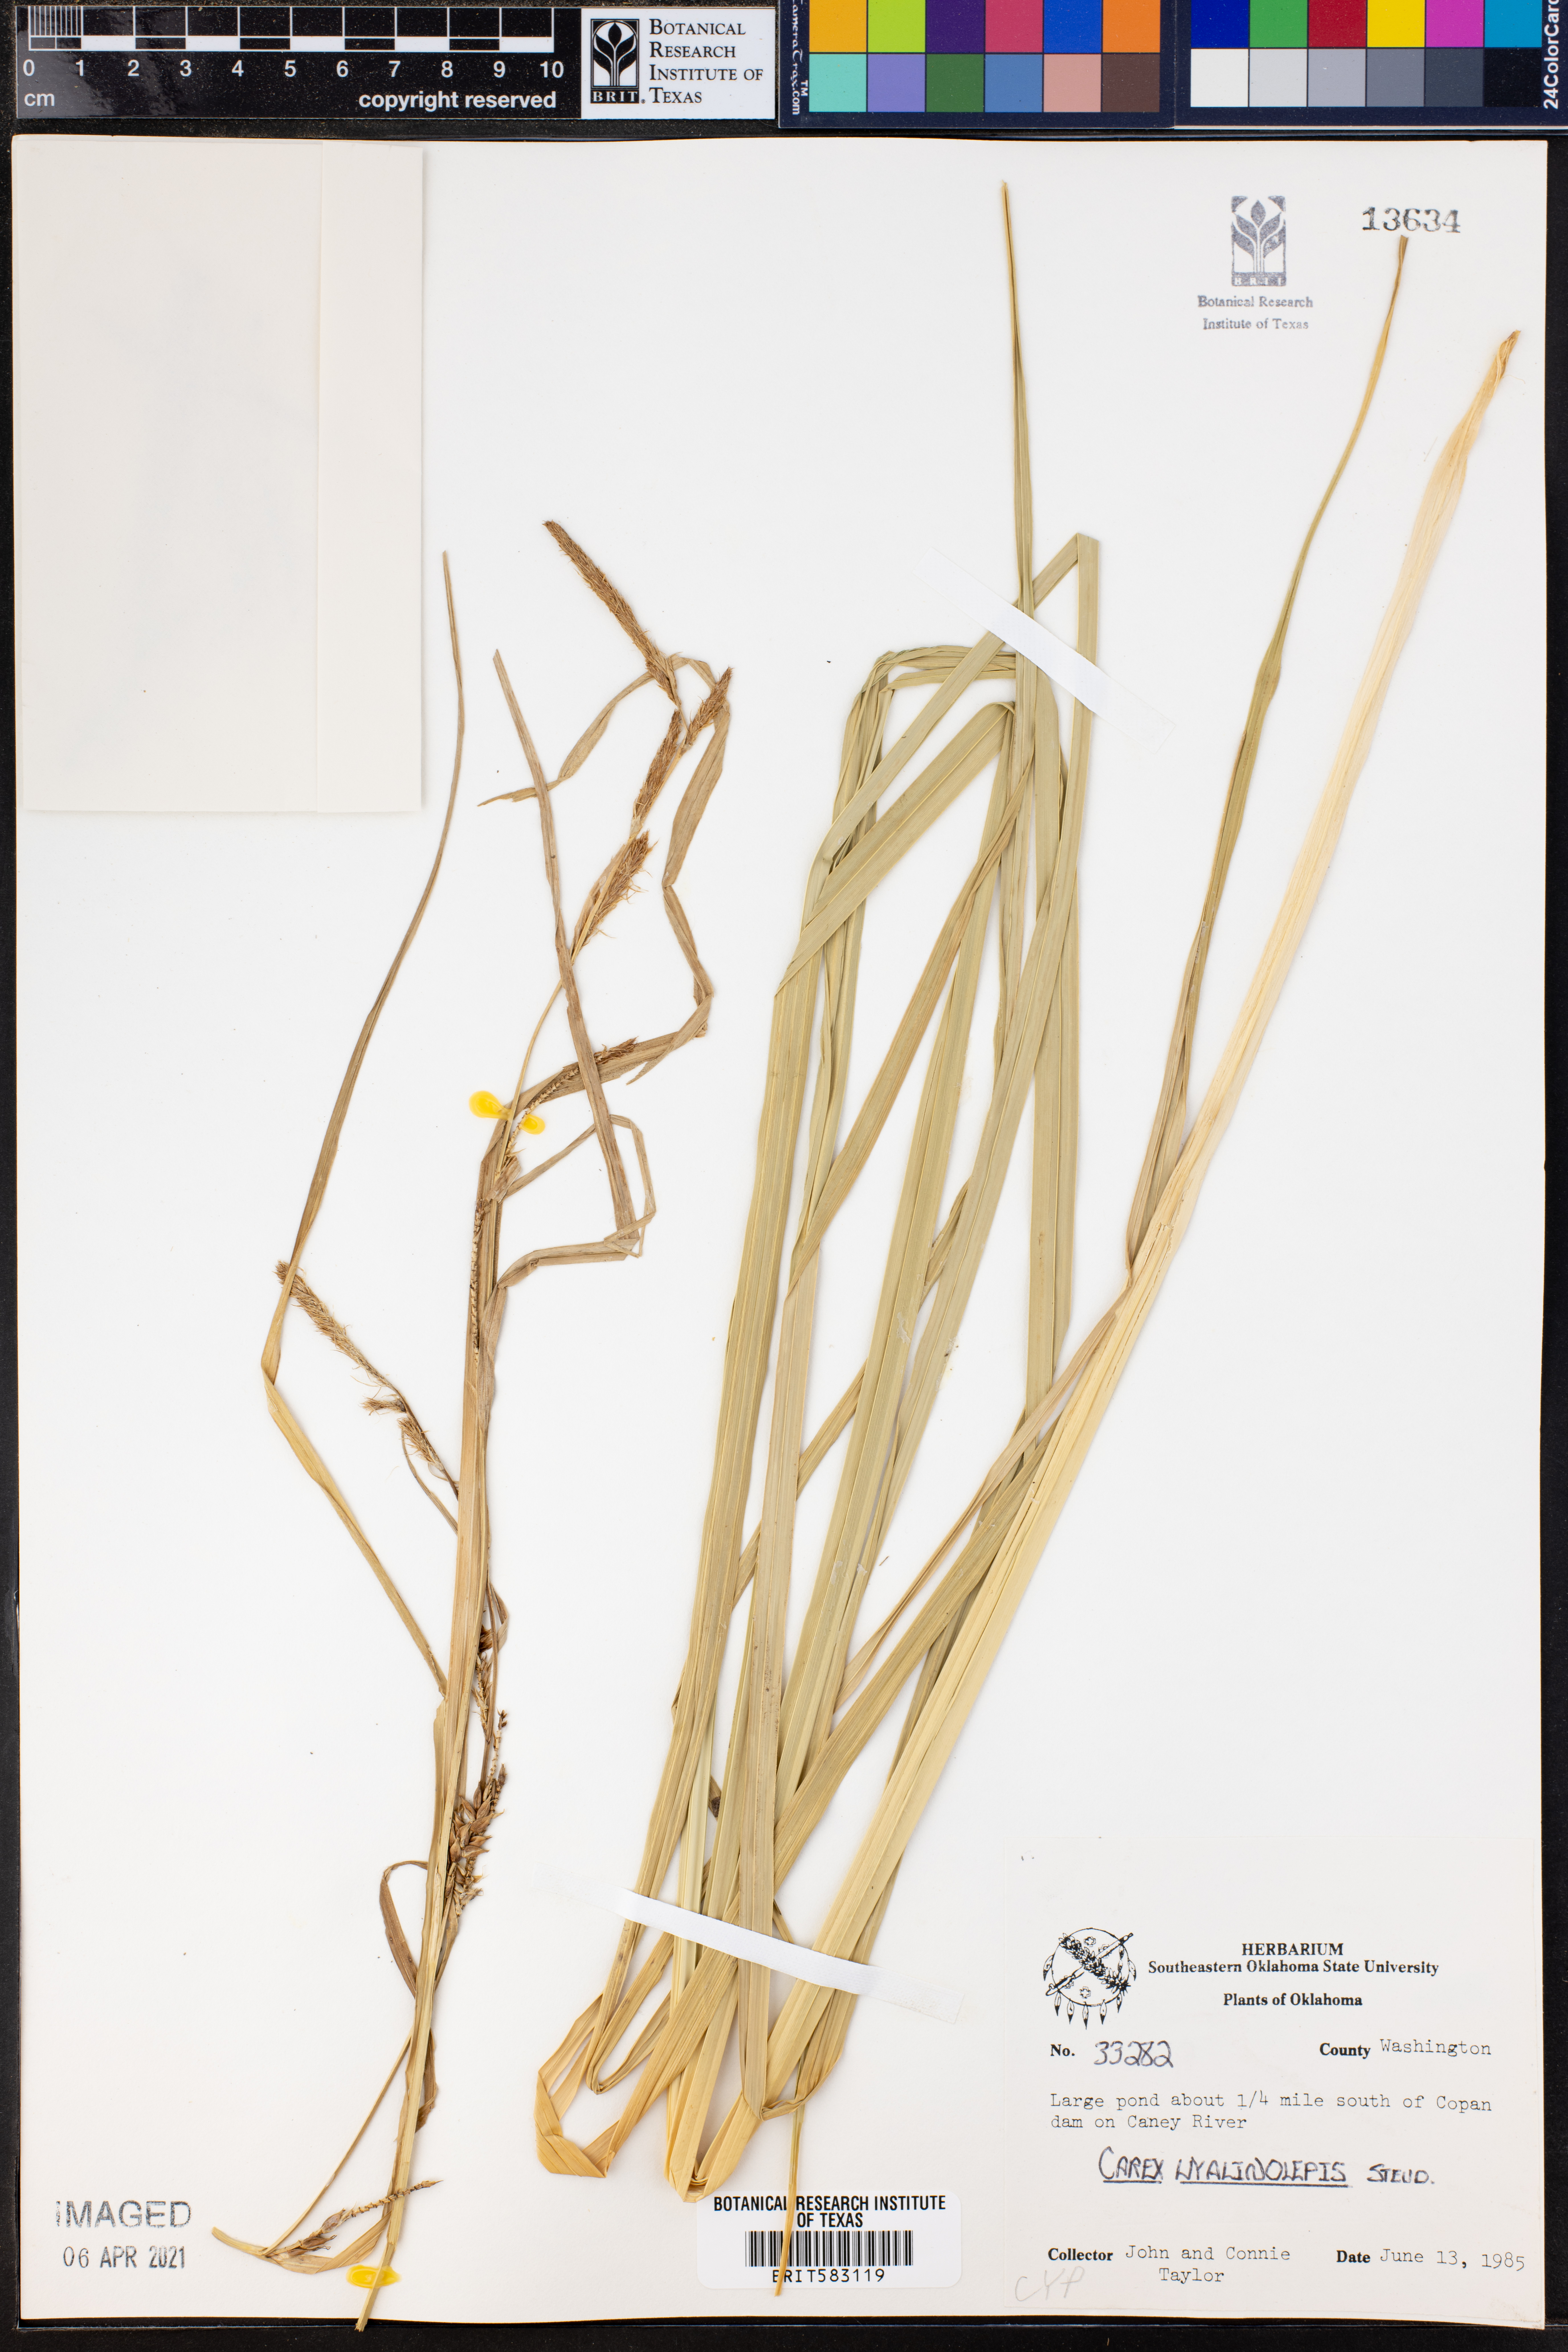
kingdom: Plantae
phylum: Tracheophyta
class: Liliopsida
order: Poales
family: Cyperaceae
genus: Carex
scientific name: Carex hyalinolepis
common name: Shoreline sedge
